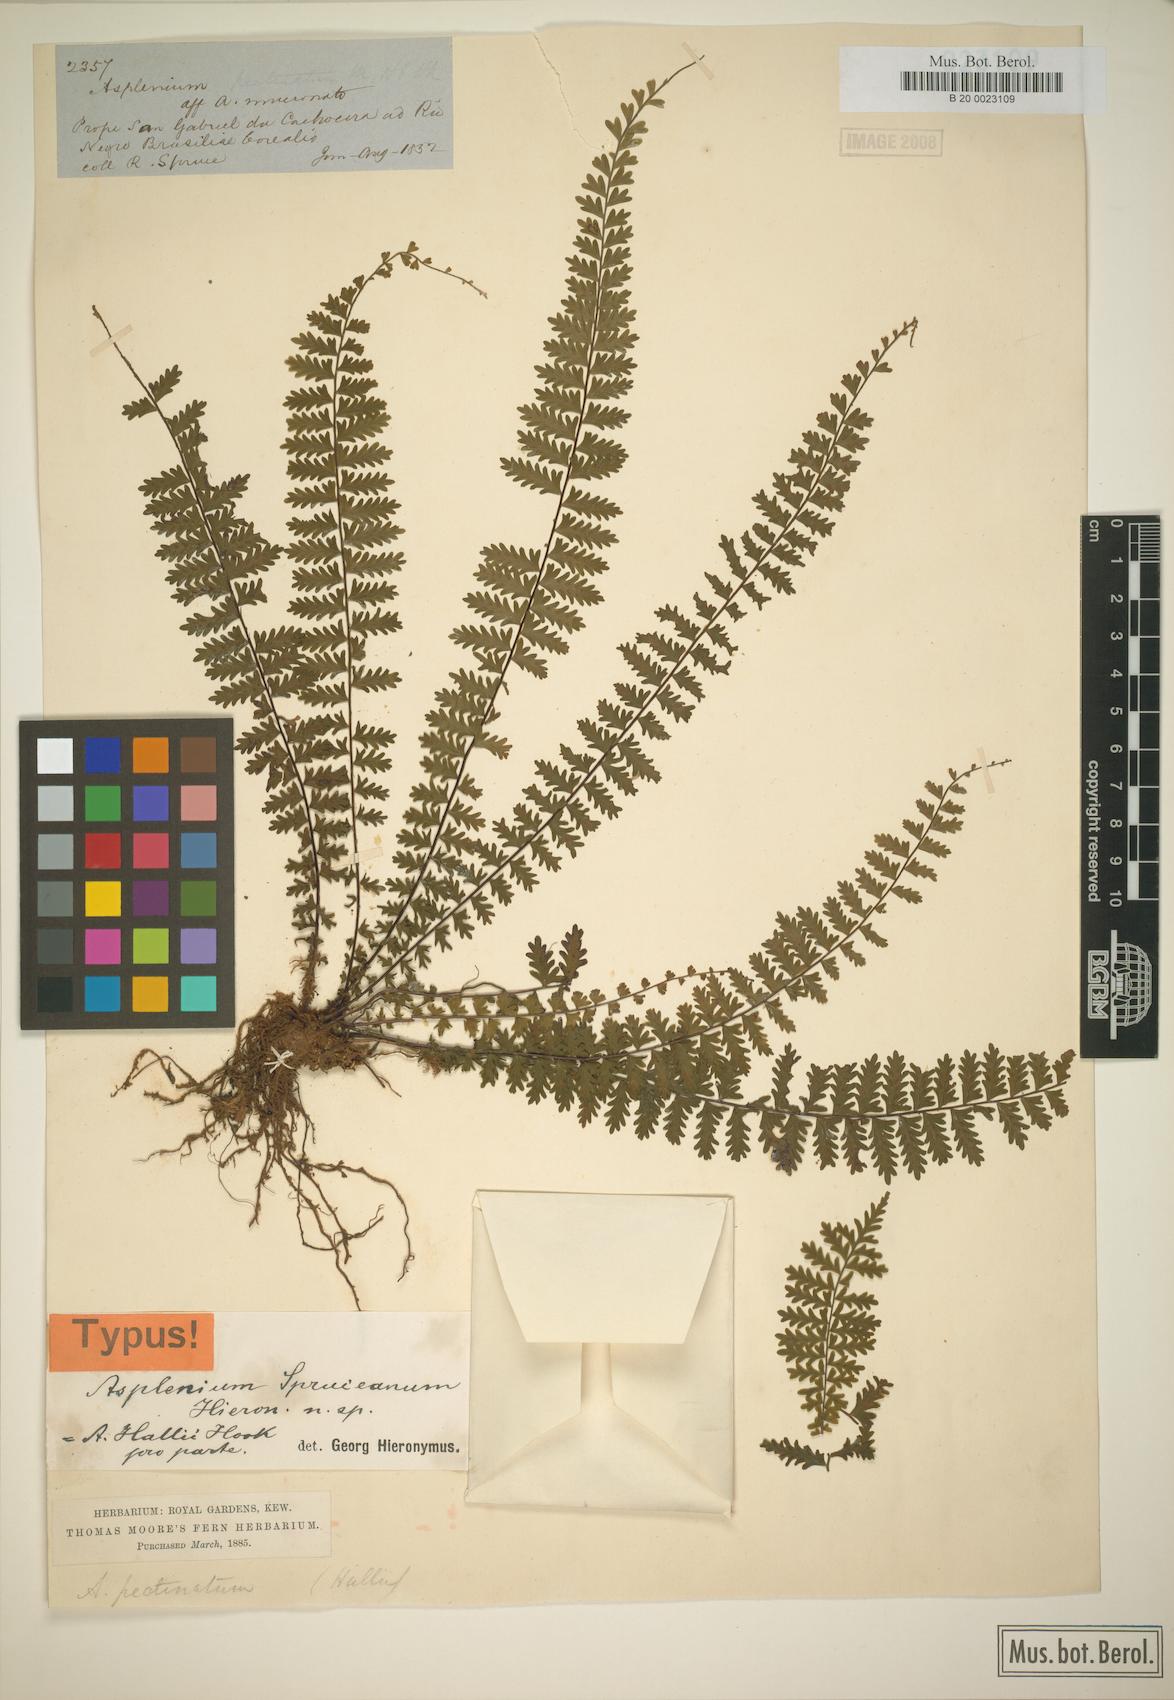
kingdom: Plantae
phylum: Tracheophyta
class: Polypodiopsida
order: Polypodiales
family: Aspleniaceae
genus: Asplenium
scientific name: Asplenium hallii
